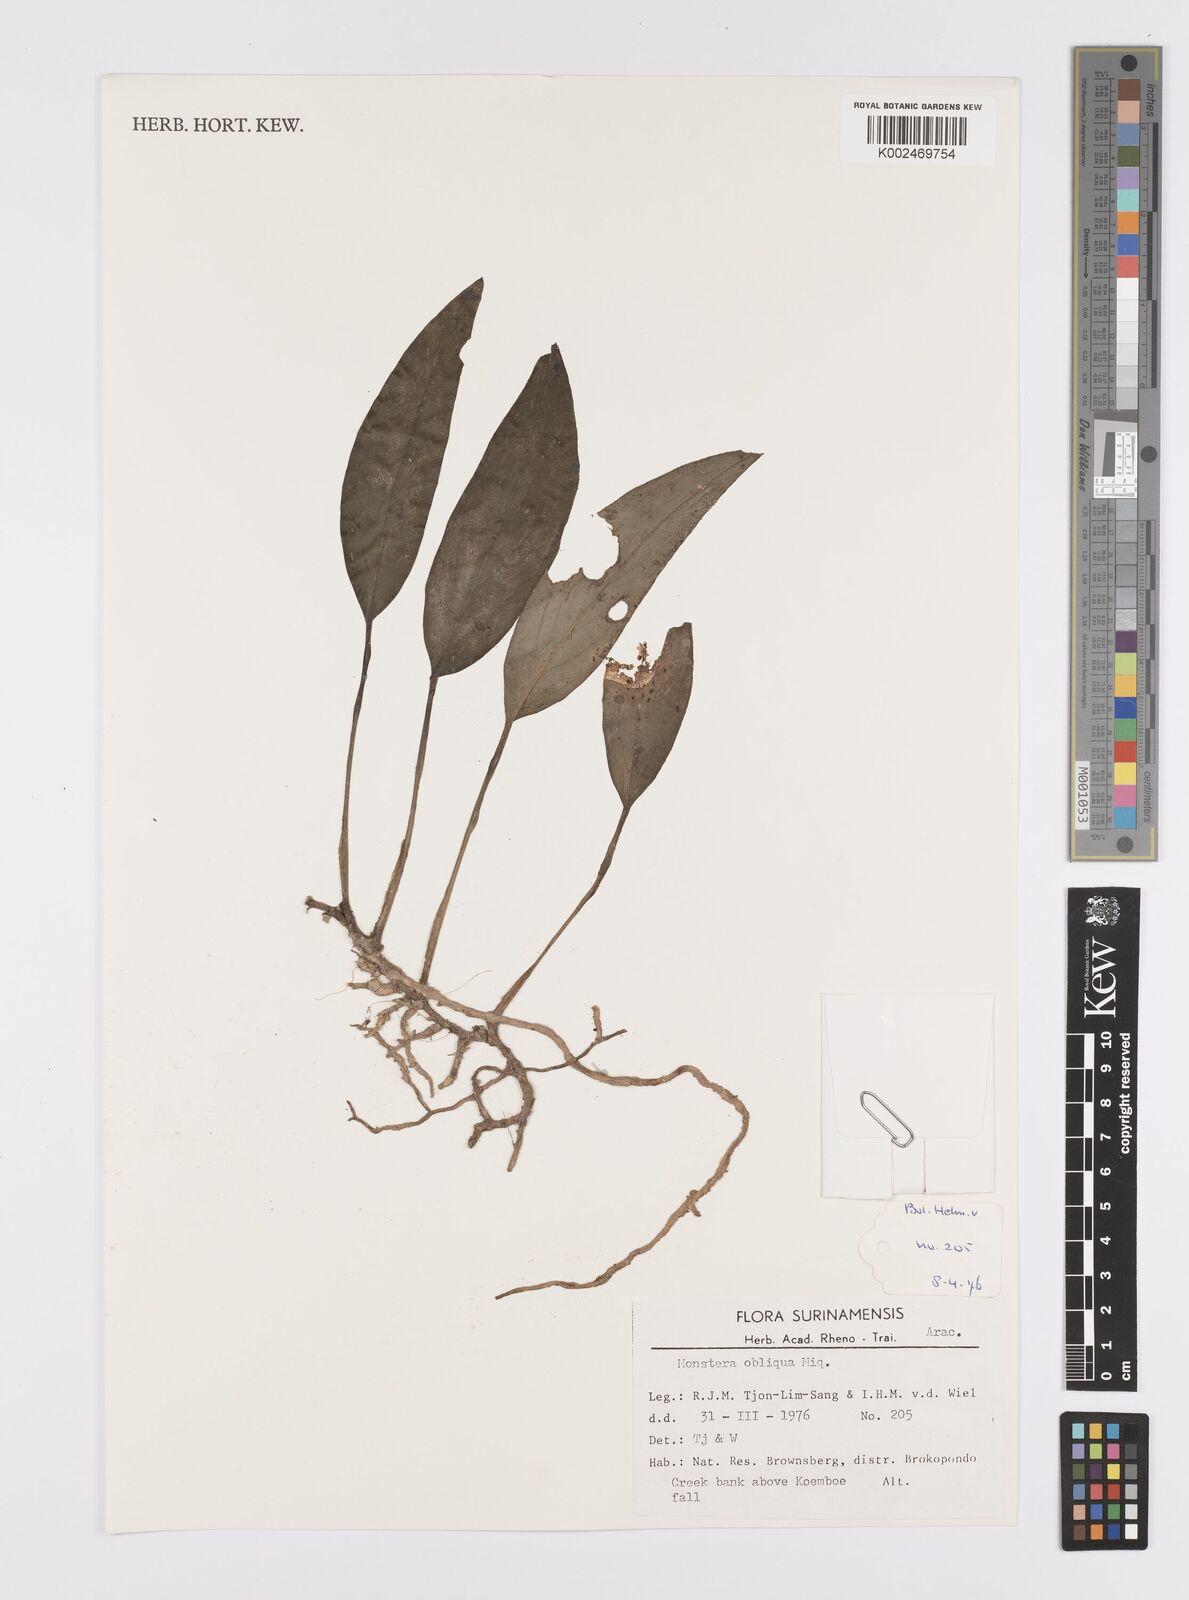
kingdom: Plantae
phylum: Tracheophyta
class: Liliopsida
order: Alismatales
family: Araceae
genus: Monstera
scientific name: Monstera obliqua
